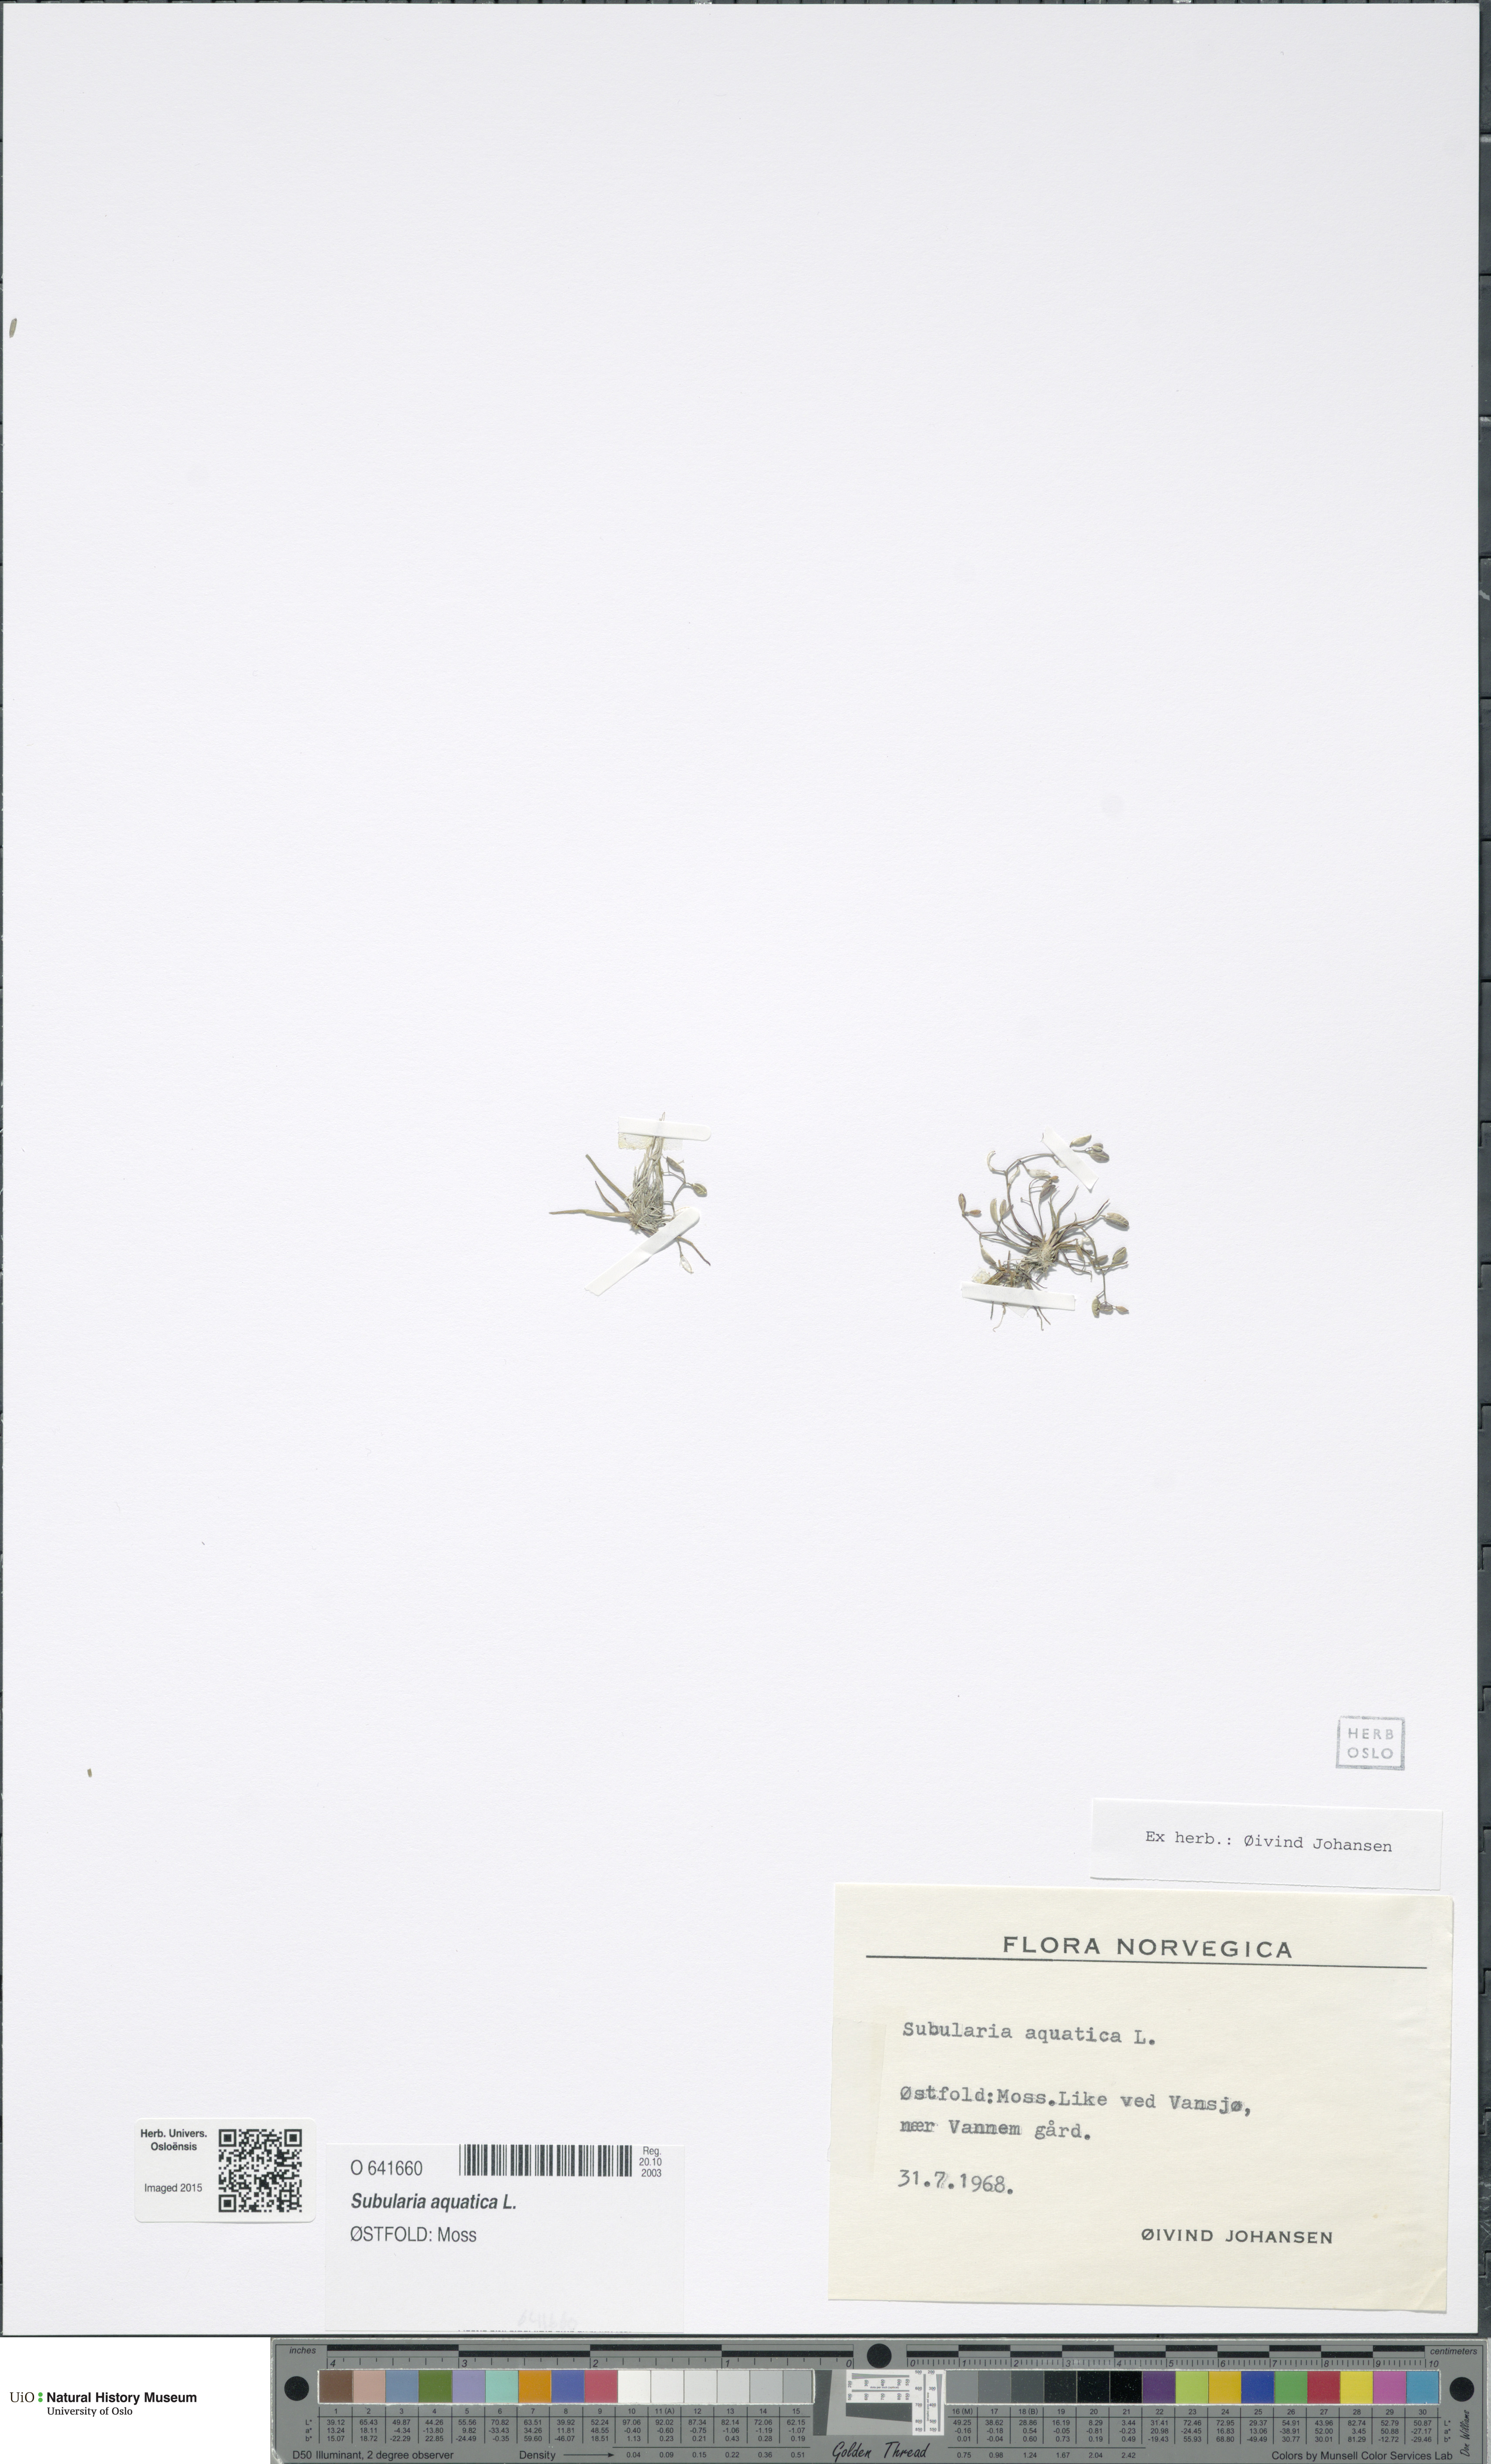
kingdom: Plantae
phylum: Tracheophyta
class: Magnoliopsida
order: Brassicales
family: Brassicaceae
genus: Subularia
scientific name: Subularia aquatica
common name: Awlwort
